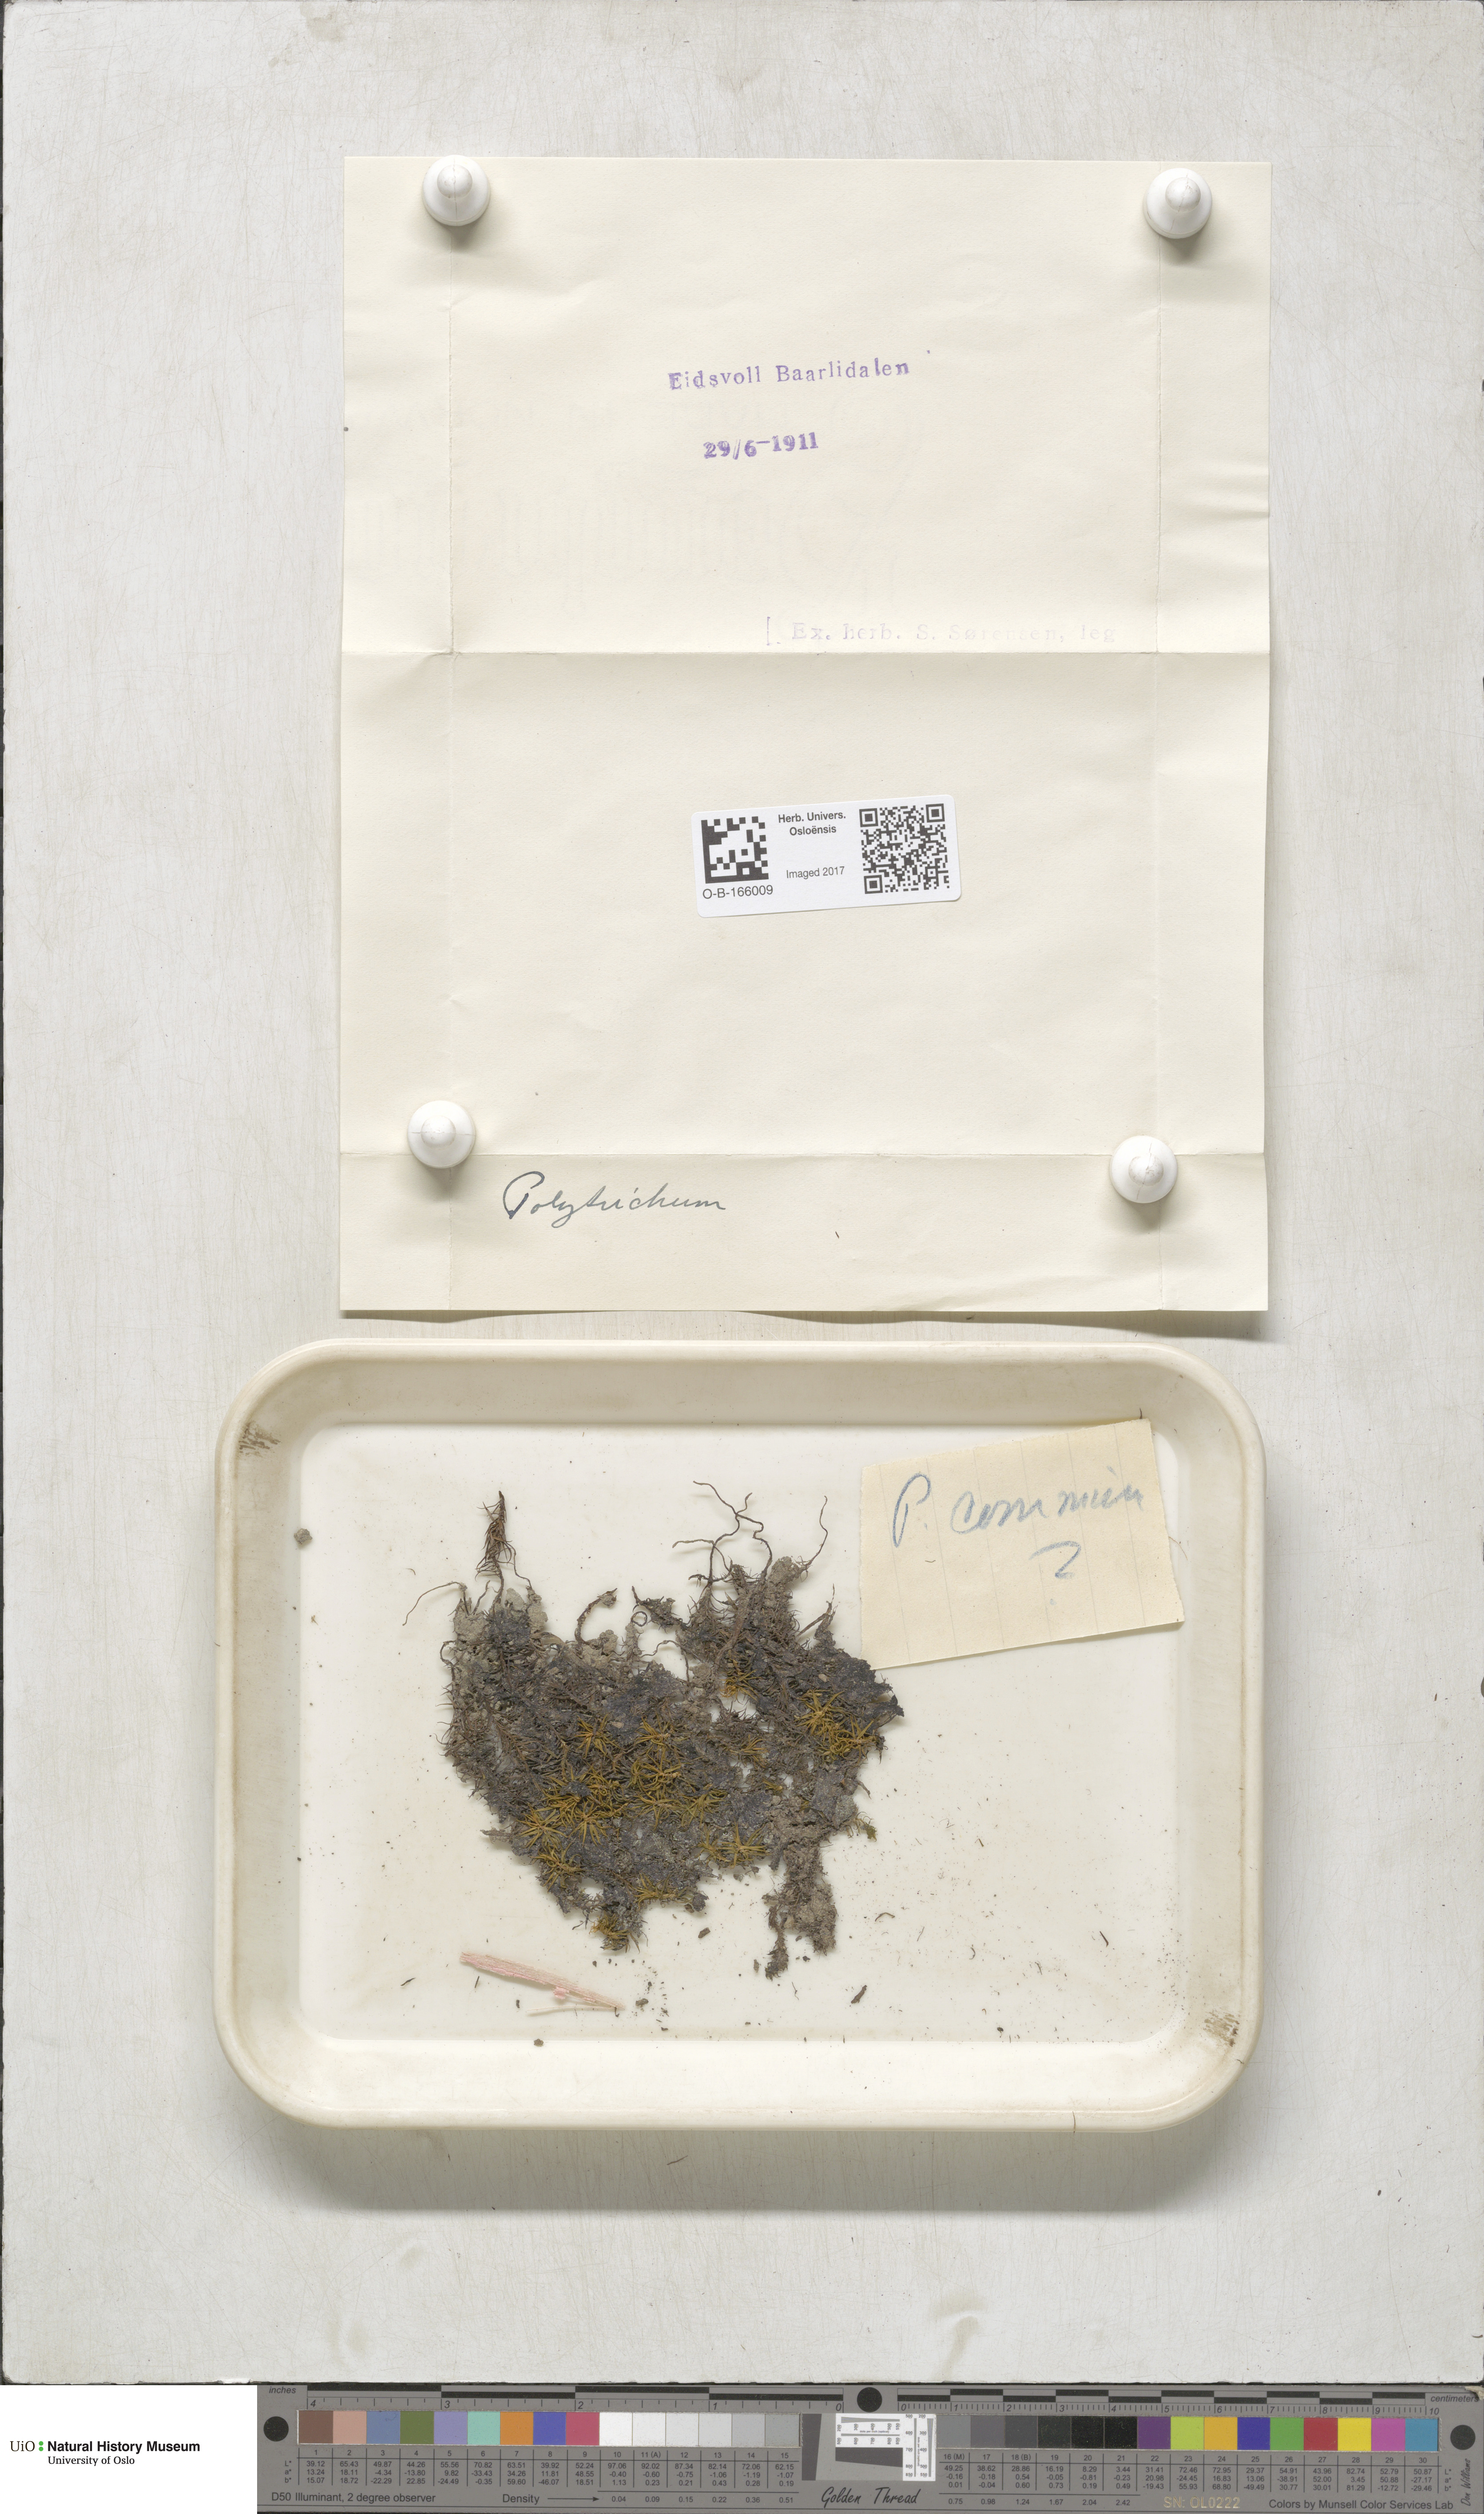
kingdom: Plantae
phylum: Bryophyta
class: Polytrichopsida
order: Polytrichales
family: Polytrichaceae
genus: Polytrichum
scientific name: Polytrichum
